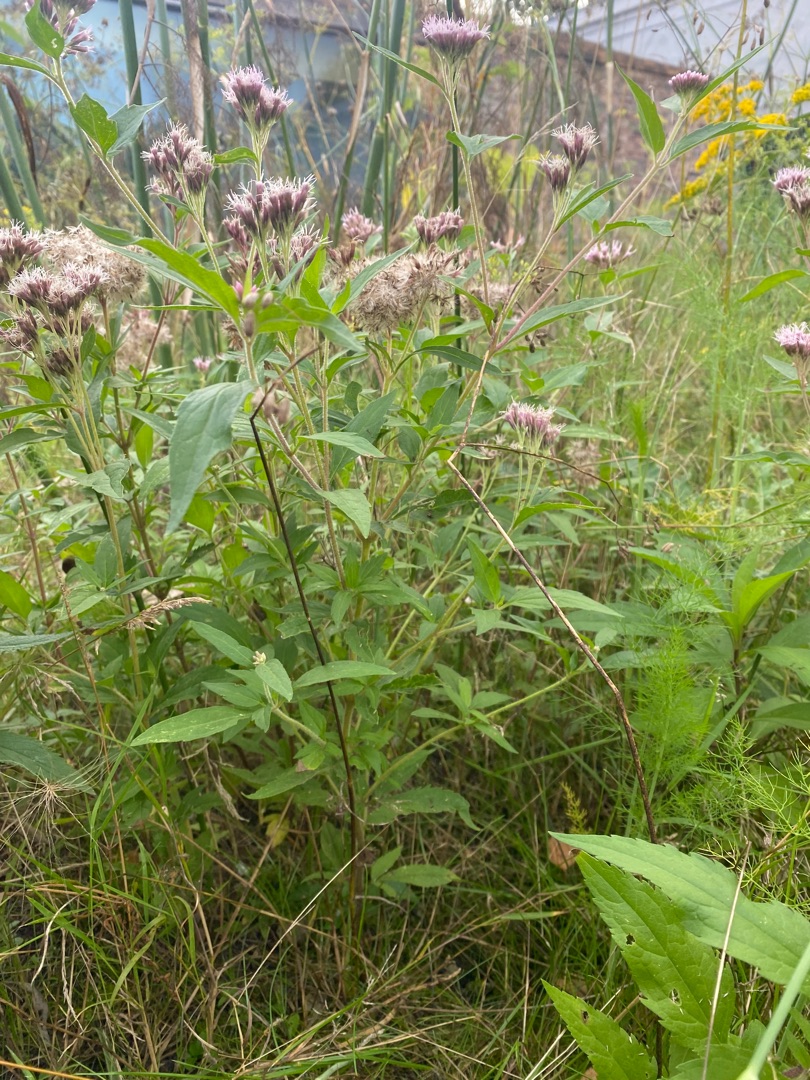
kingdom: Plantae
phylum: Tracheophyta
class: Magnoliopsida
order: Asterales
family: Asteraceae
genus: Eupatorium
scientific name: Eupatorium cannabinum
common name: Hjortetrøst
